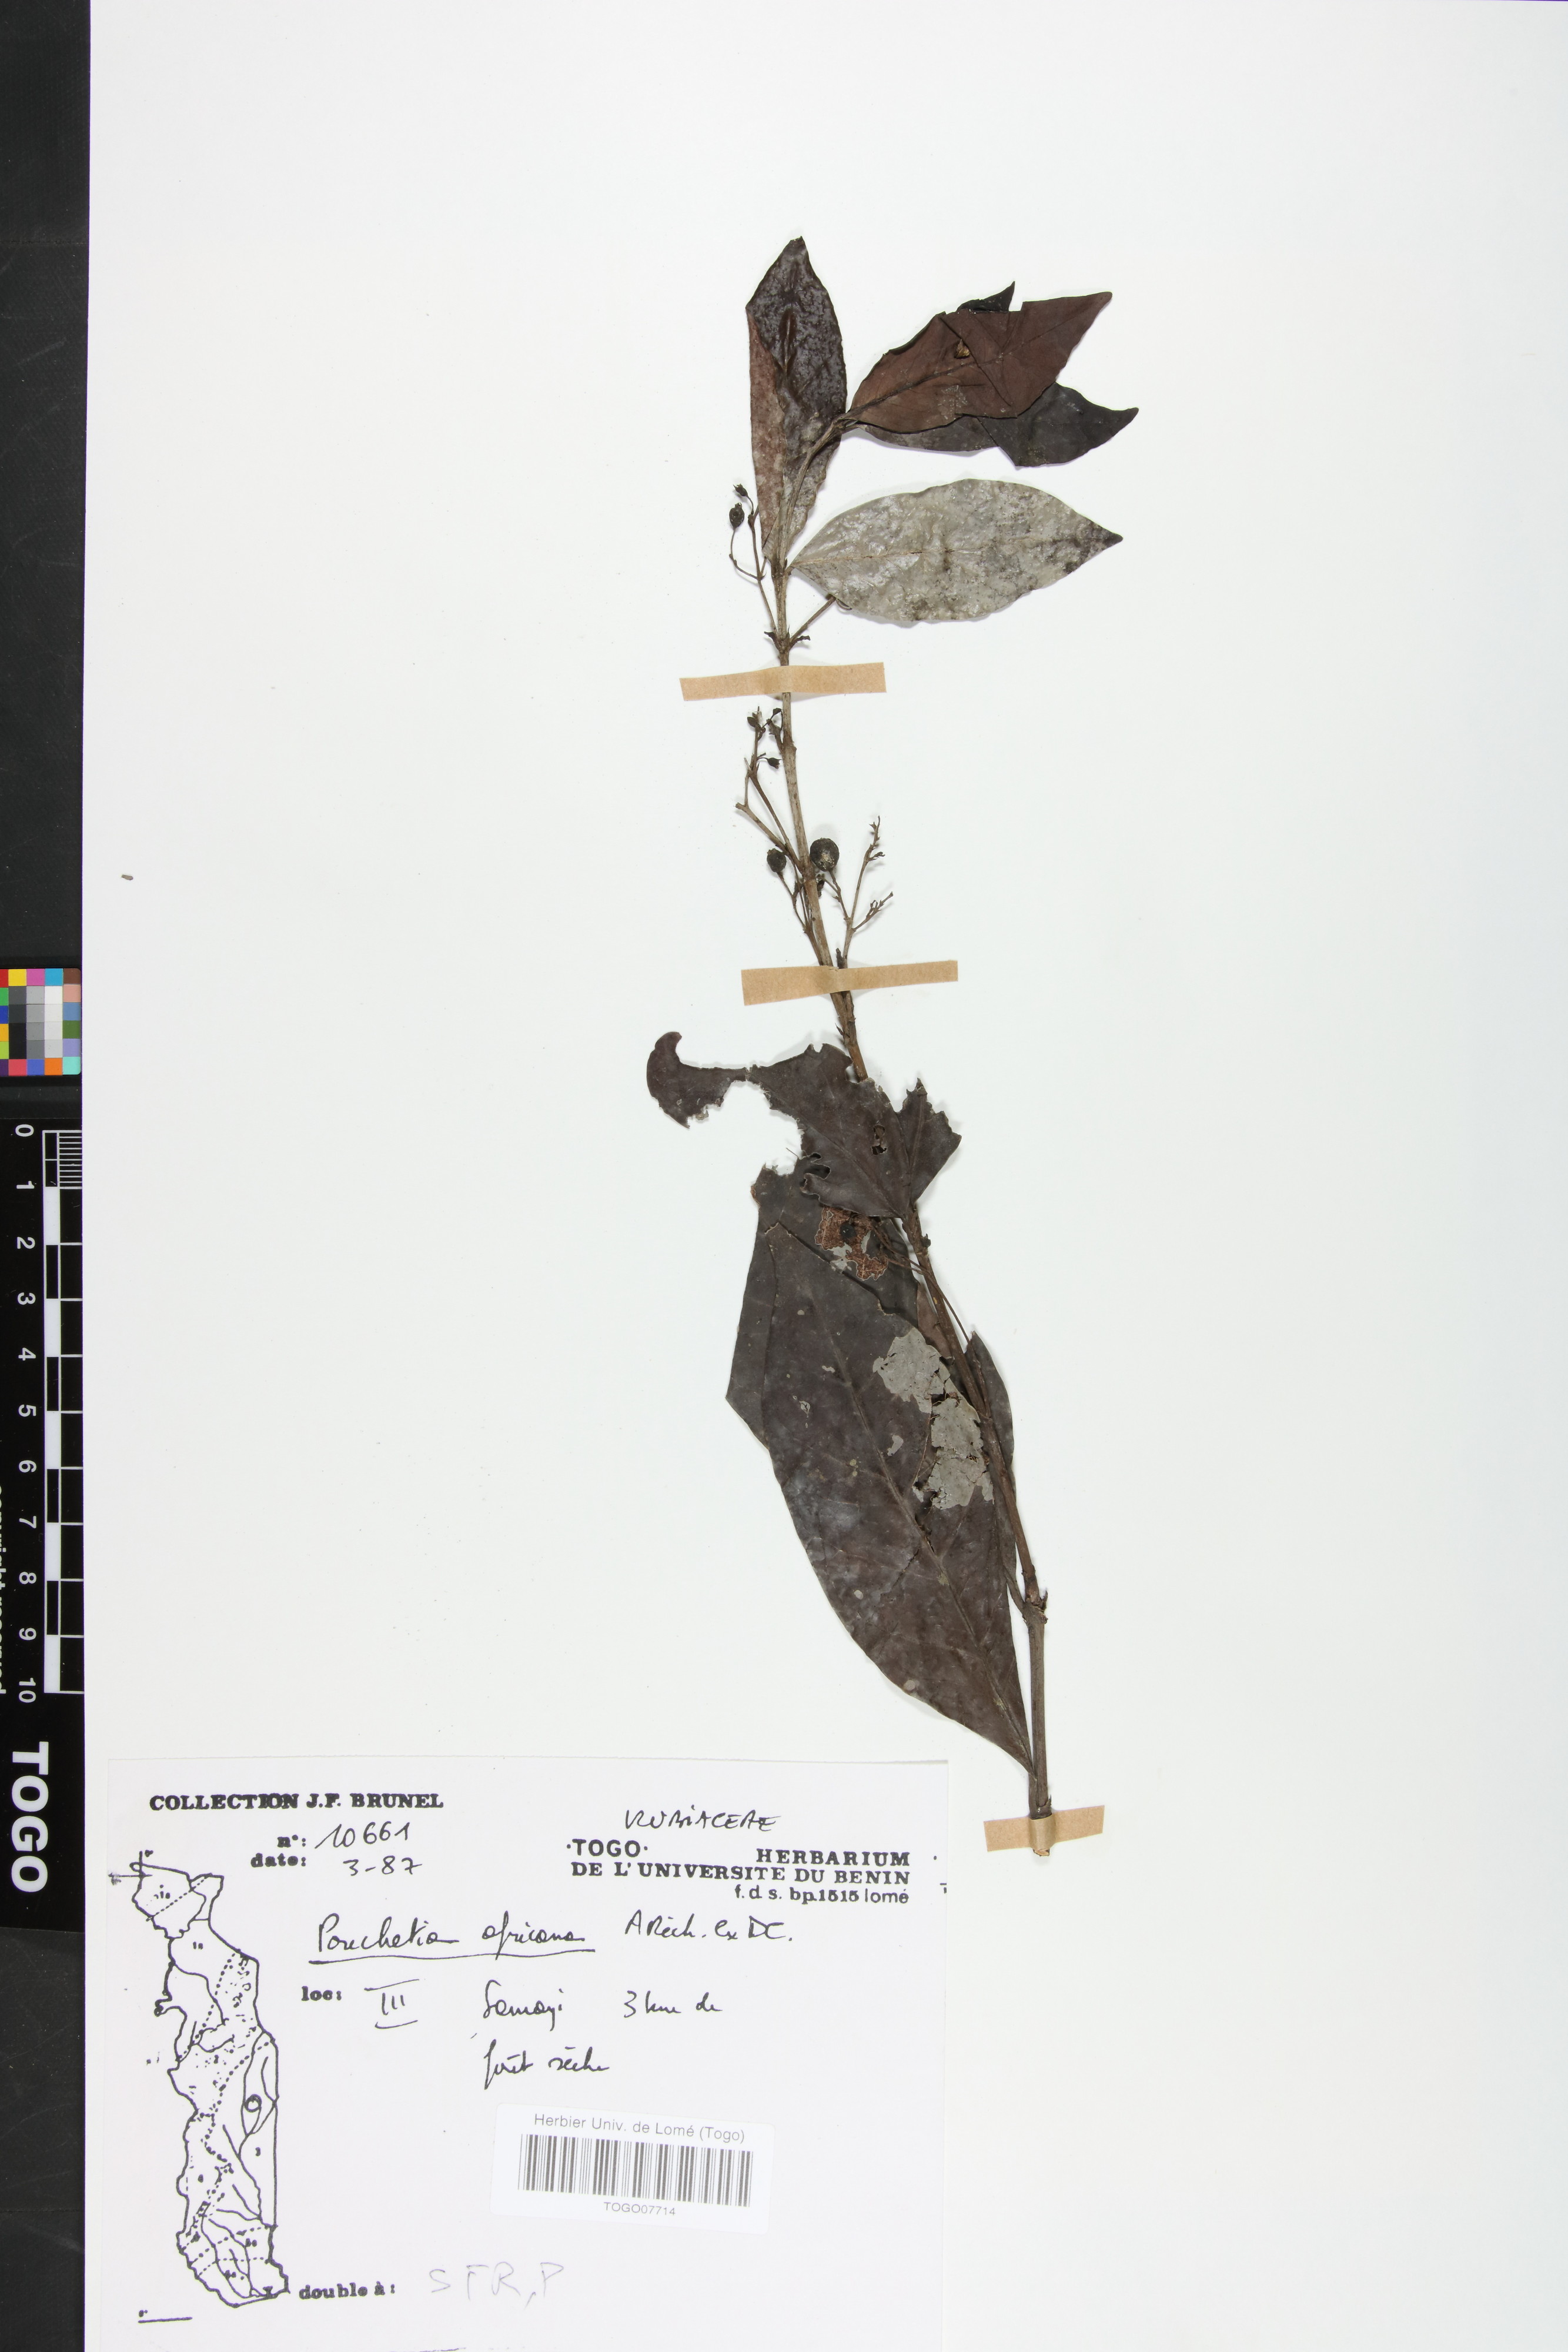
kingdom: Plantae
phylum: Tracheophyta
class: Magnoliopsida
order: Gentianales
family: Rubiaceae
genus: Pouchetia
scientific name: Pouchetia africana
